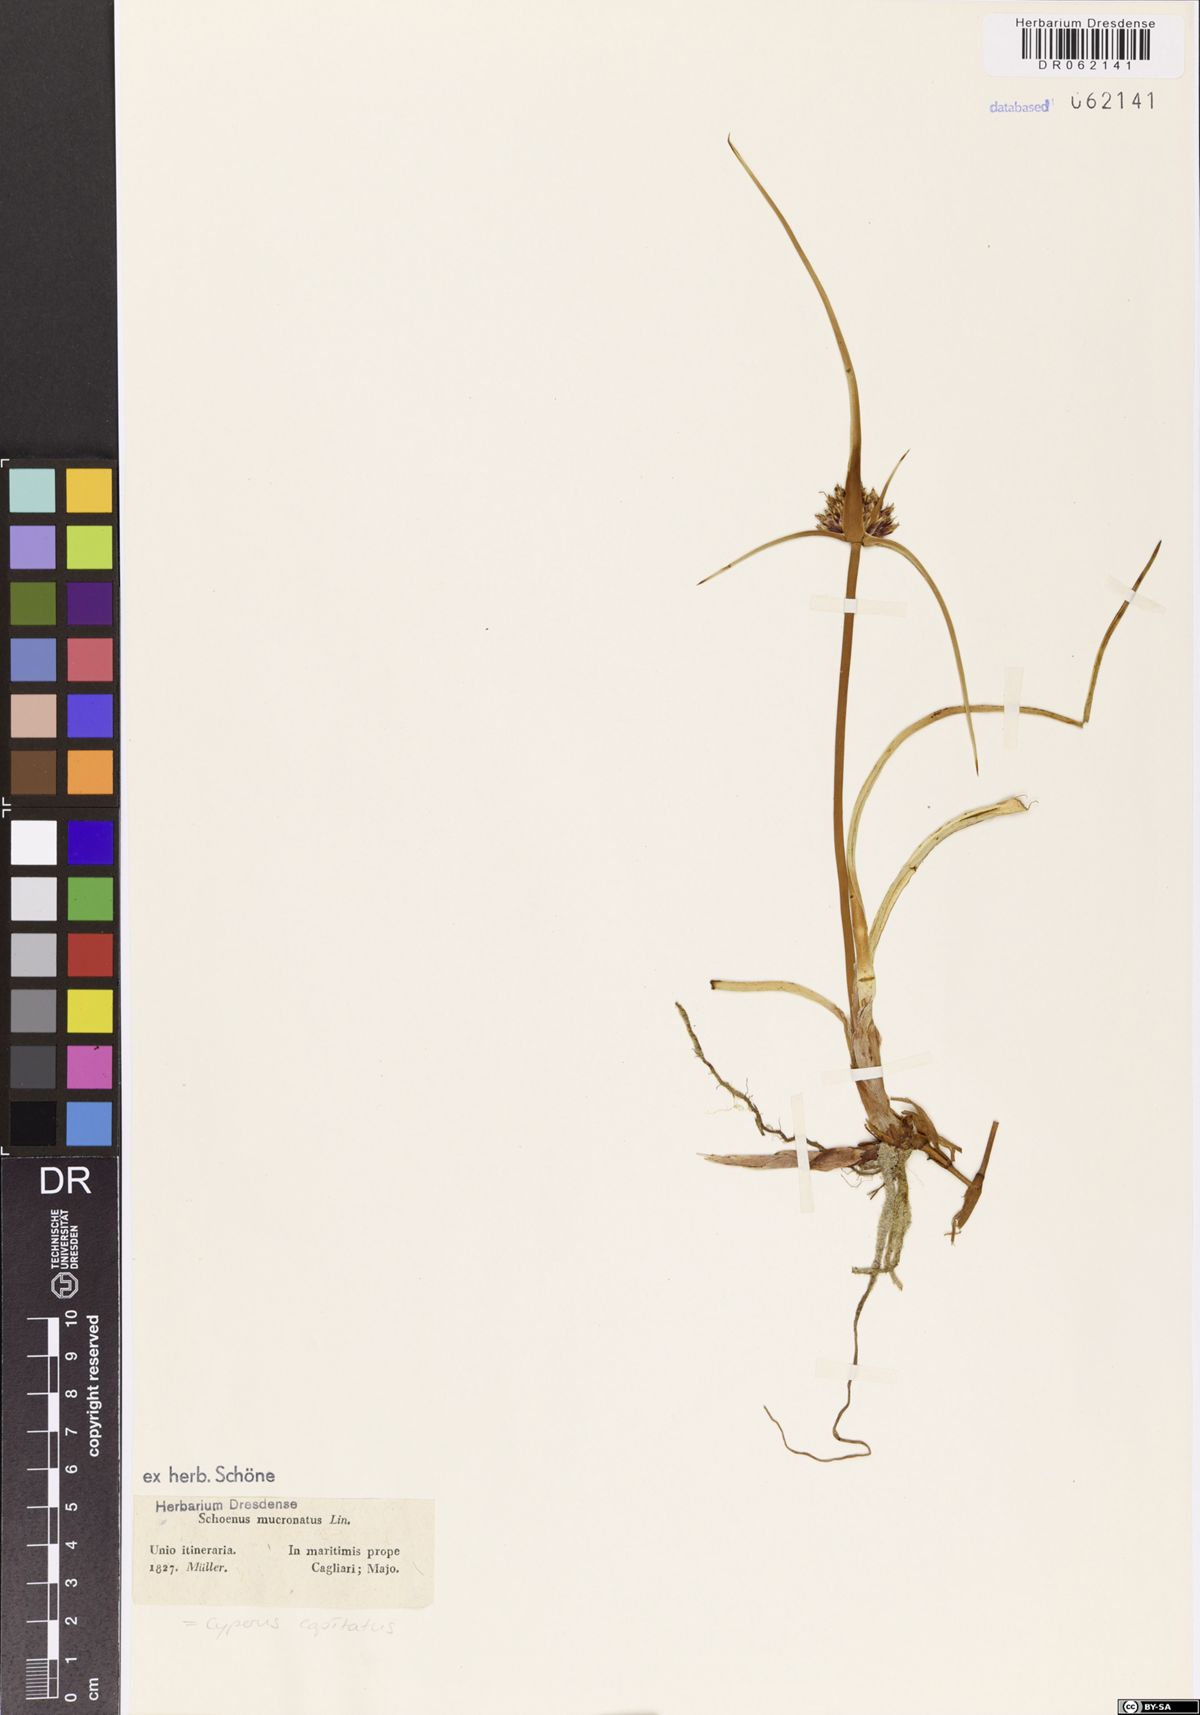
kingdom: Plantae
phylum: Tracheophyta
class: Liliopsida
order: Poales
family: Cyperaceae
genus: Cyperus
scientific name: Cyperus capitatus
